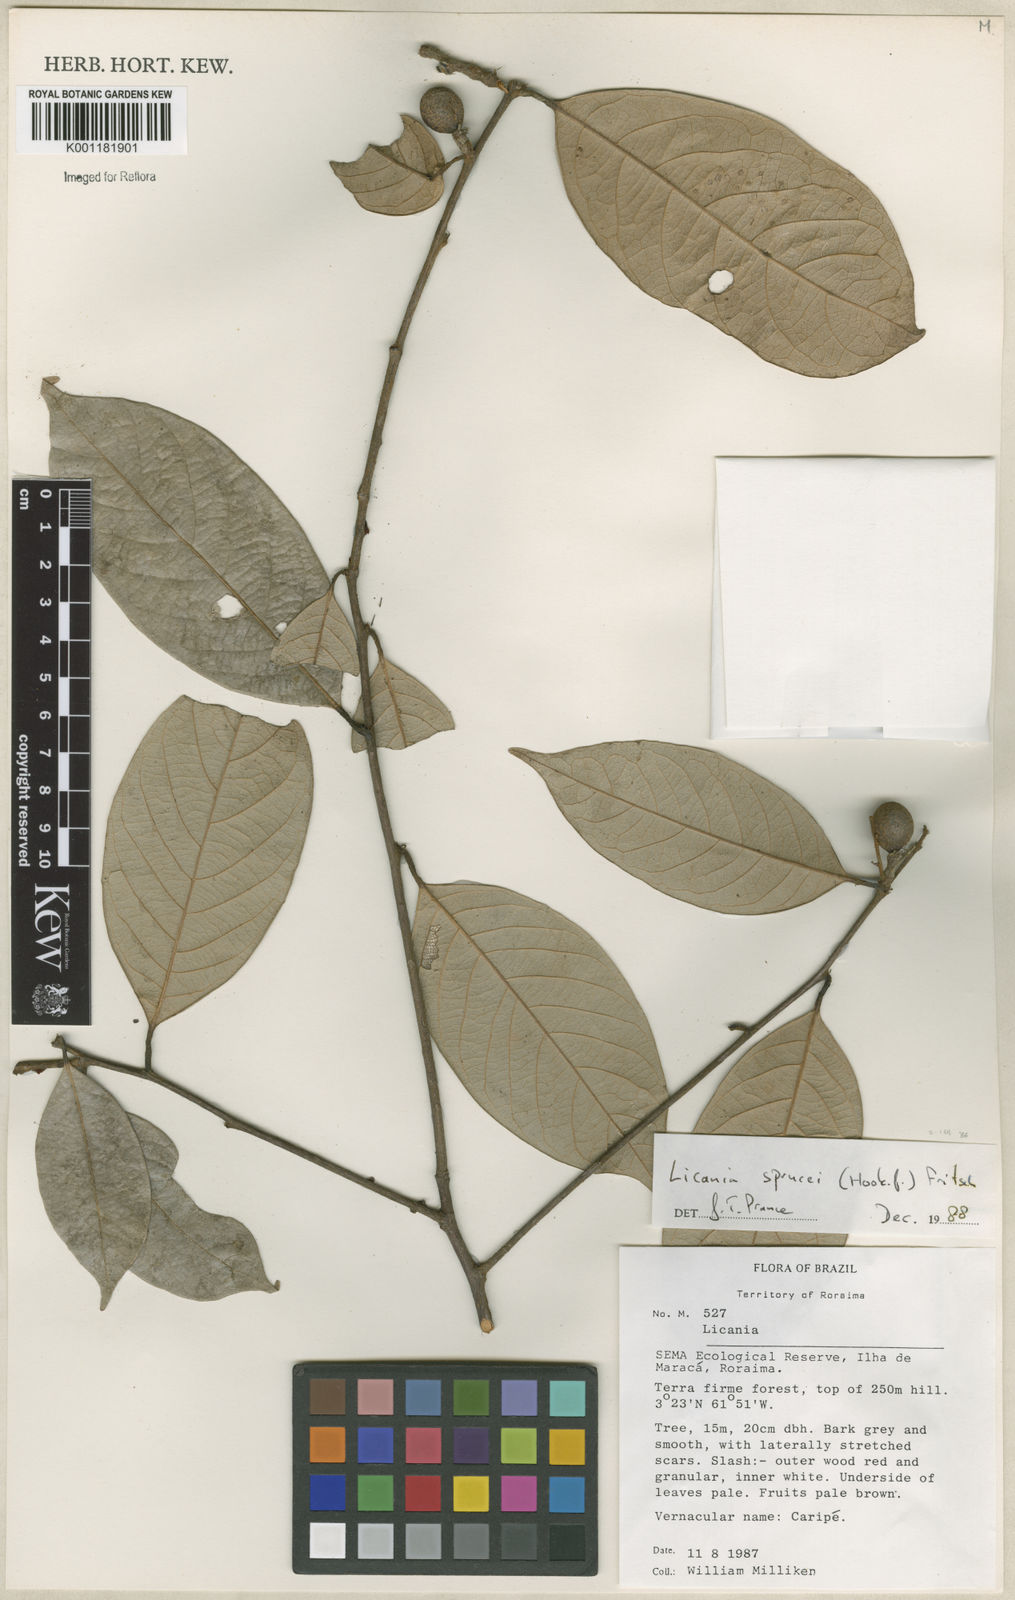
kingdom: Plantae
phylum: Tracheophyta
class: Magnoliopsida
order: Malpighiales
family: Chrysobalanaceae
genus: Leptobalanus
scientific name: Leptobalanus sprucei
